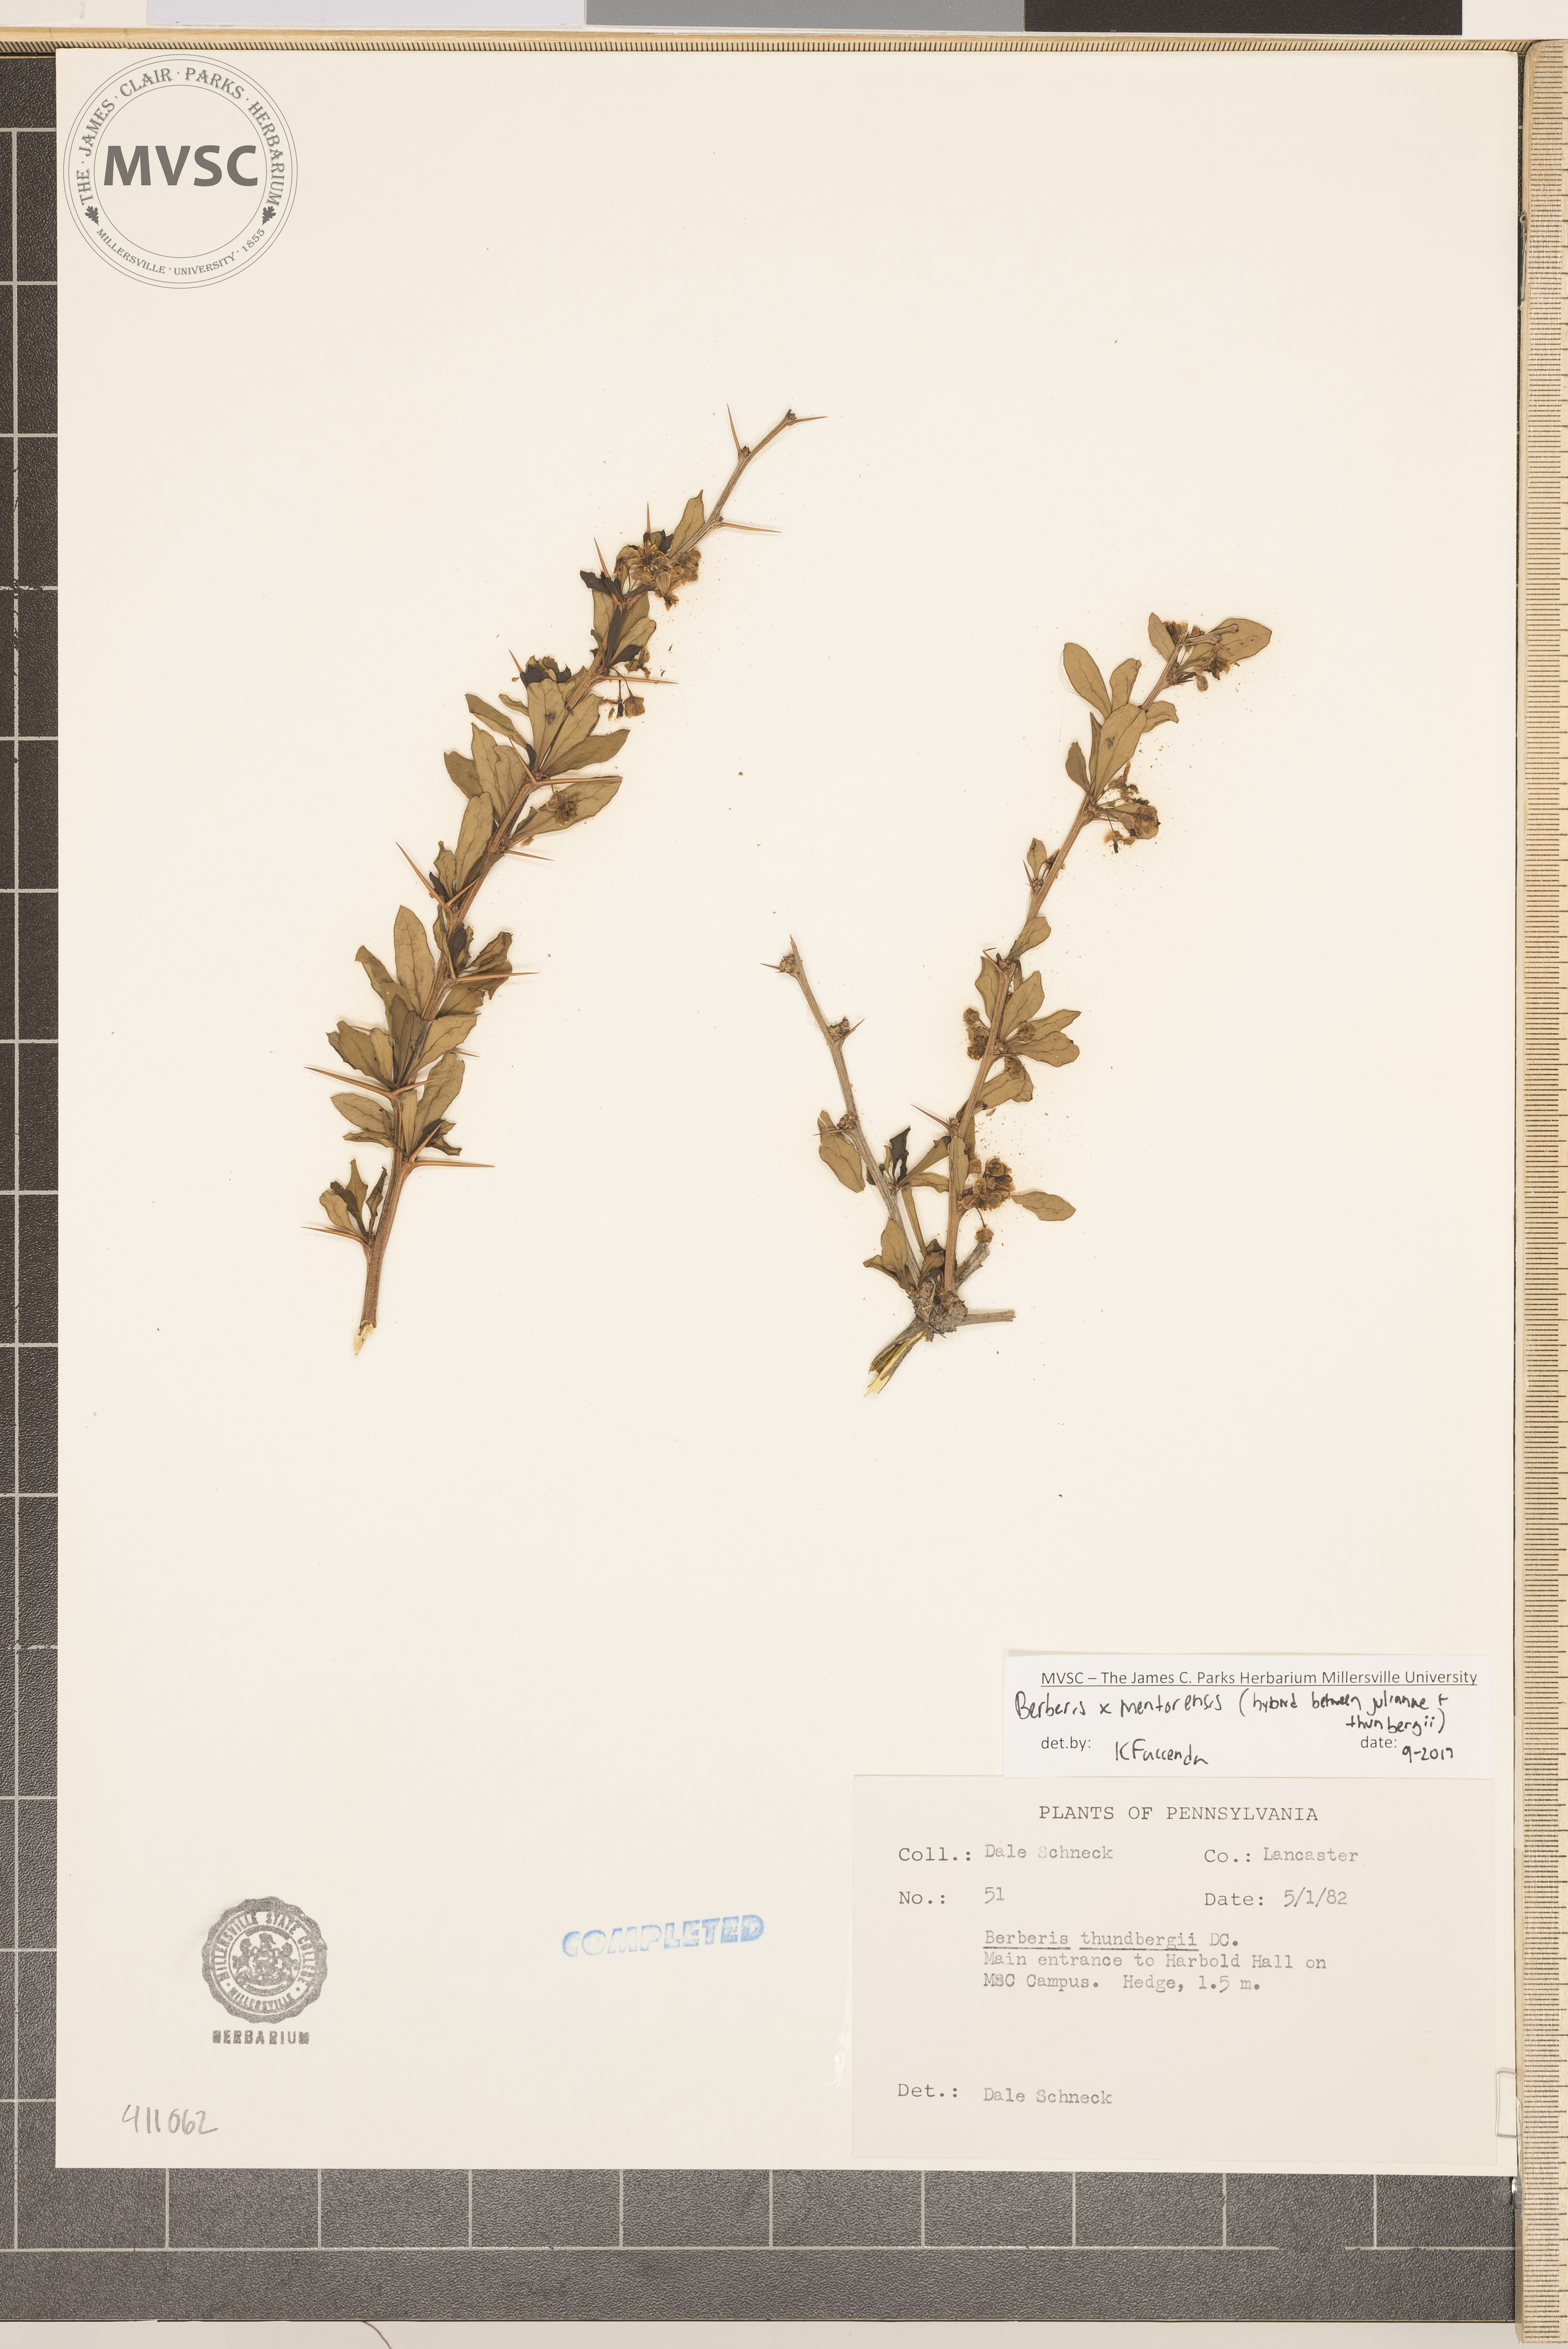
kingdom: Plantae
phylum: Tracheophyta
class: Magnoliopsida
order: Ranunculales
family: Berberidaceae
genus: Berberis
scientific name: Berberis mentorensis
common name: Mentor's barberry
